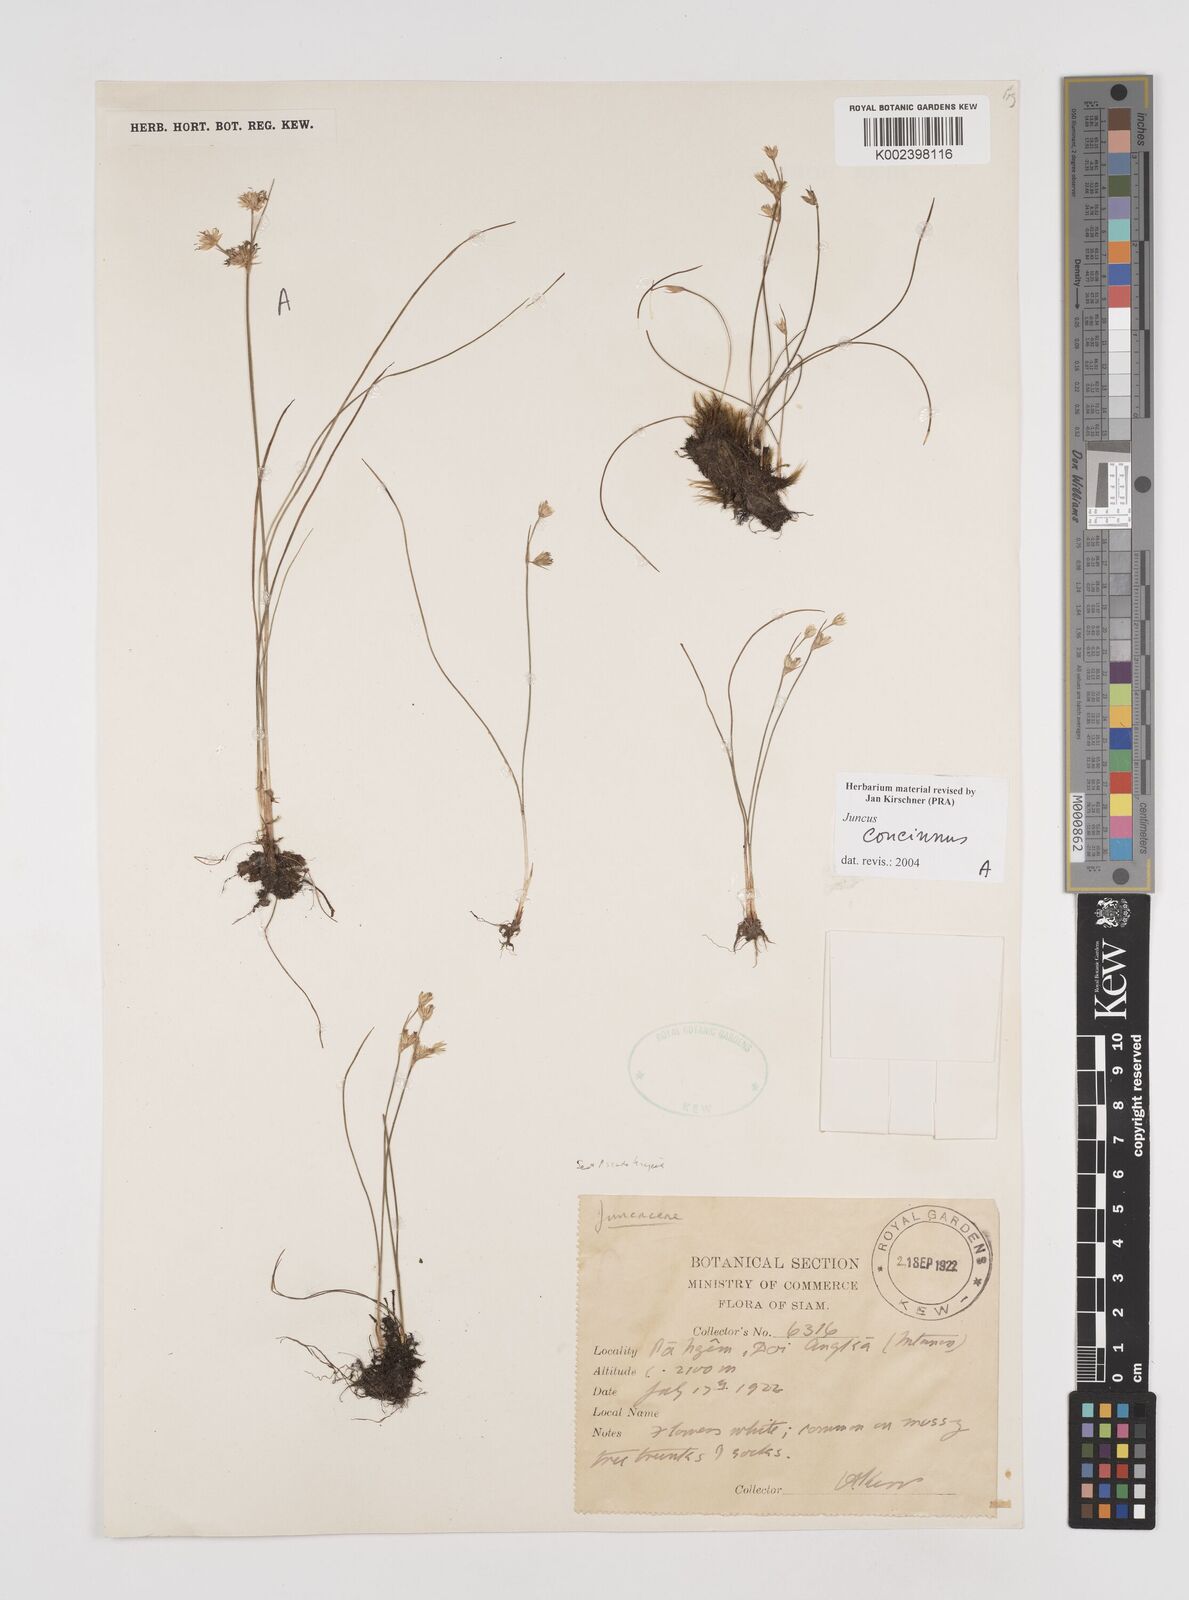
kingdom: Plantae
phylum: Tracheophyta
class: Liliopsida
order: Poales
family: Juncaceae
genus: Juncus
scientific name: Juncus concinnus
